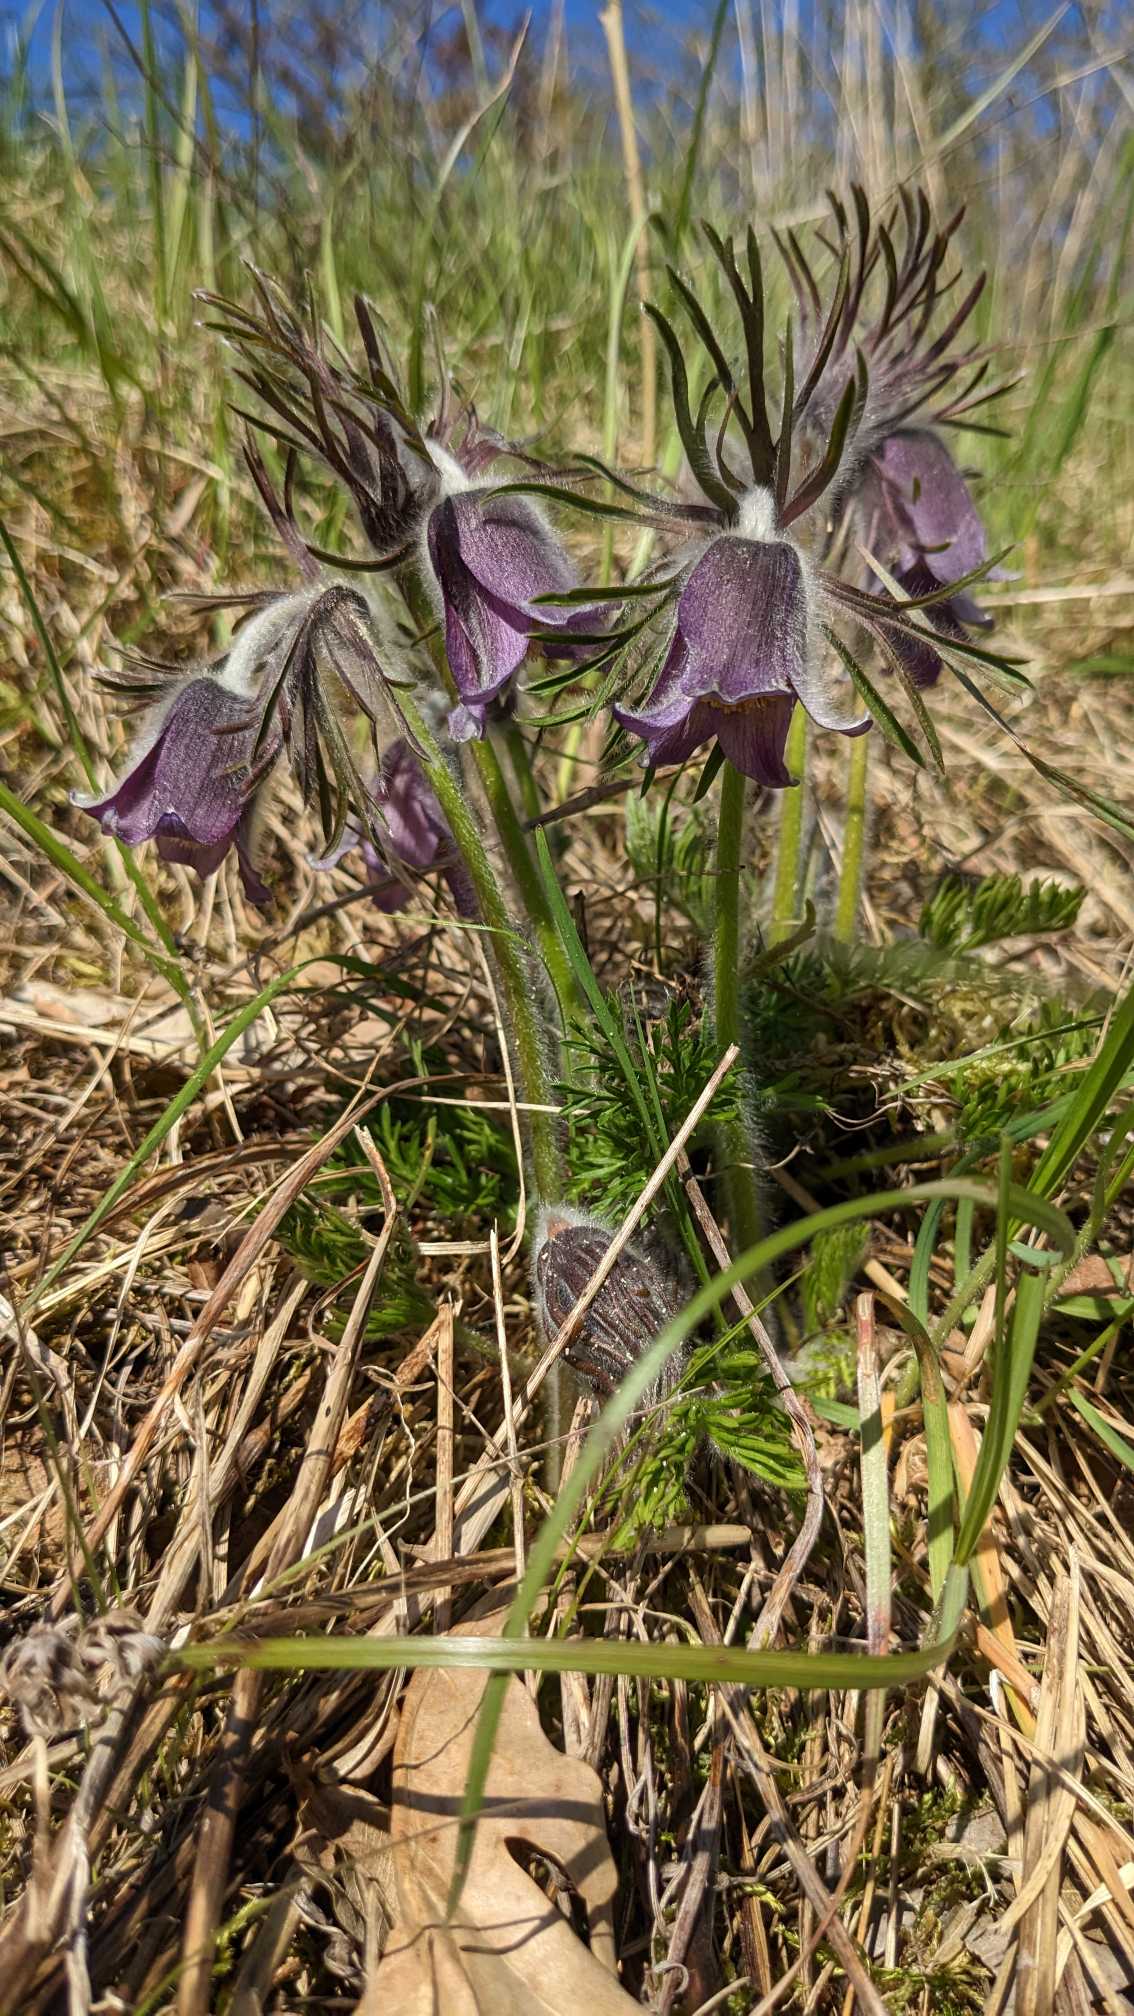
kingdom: Plantae
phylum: Tracheophyta
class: Magnoliopsida
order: Ranunculales
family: Ranunculaceae
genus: Pulsatilla
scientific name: Pulsatilla pratensis
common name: Nikkende kobjælde
